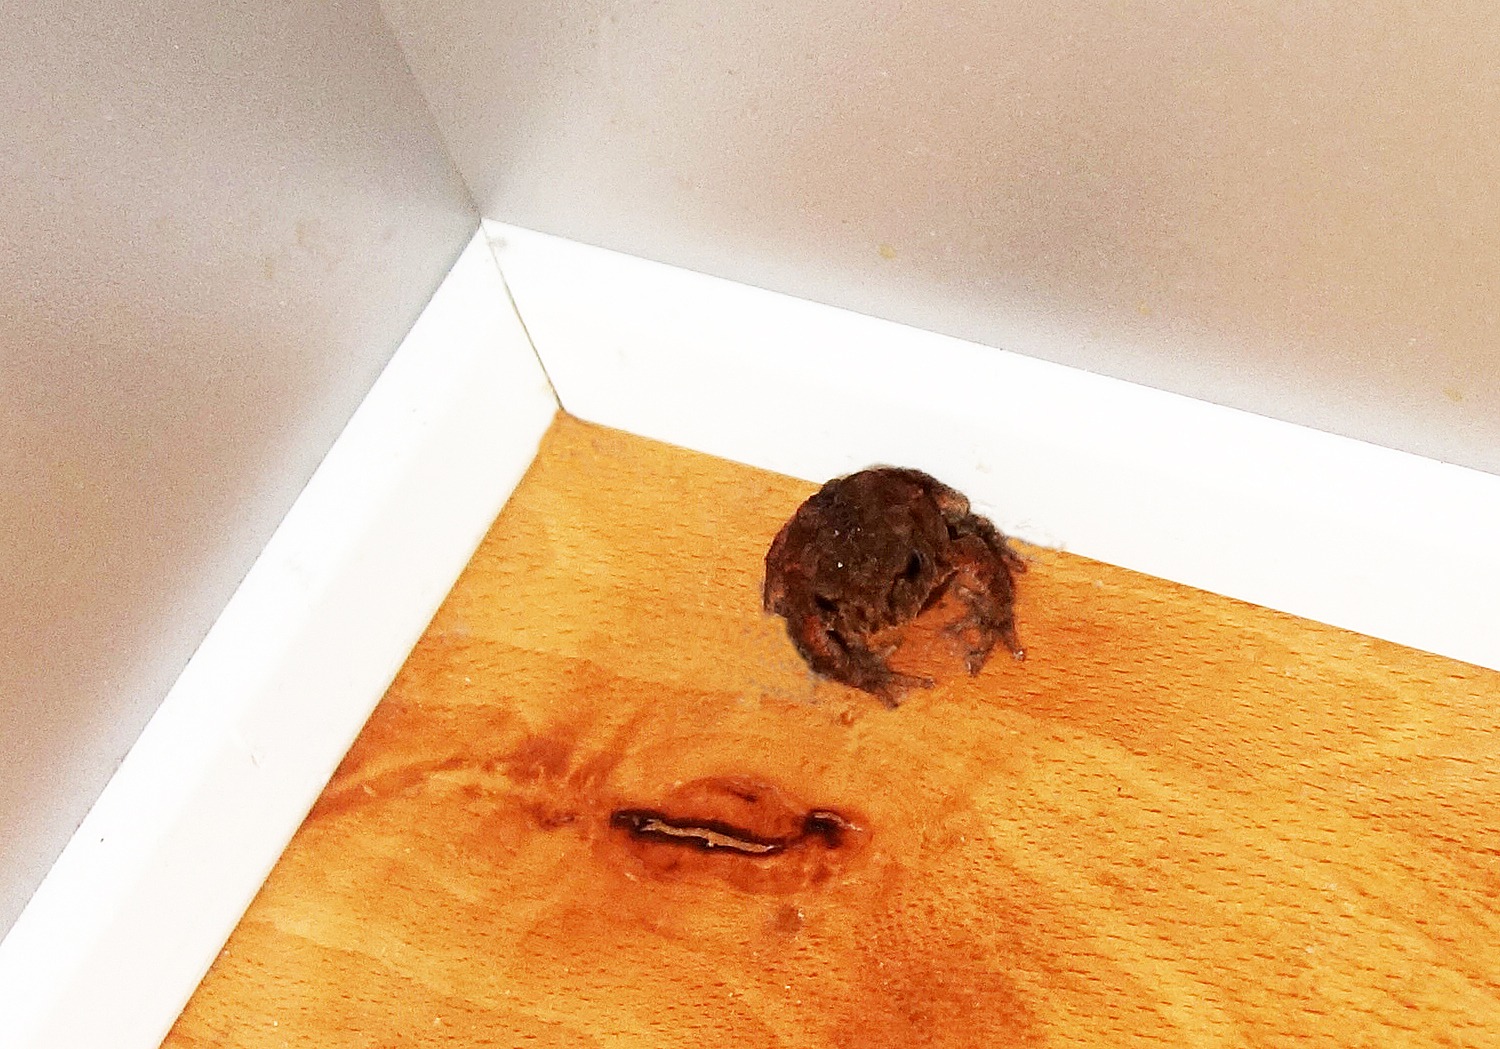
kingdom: Animalia
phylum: Chordata
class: Amphibia
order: Anura
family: Bufonidae
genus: Bufo
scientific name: Bufo bufo
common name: Skrubtudse
